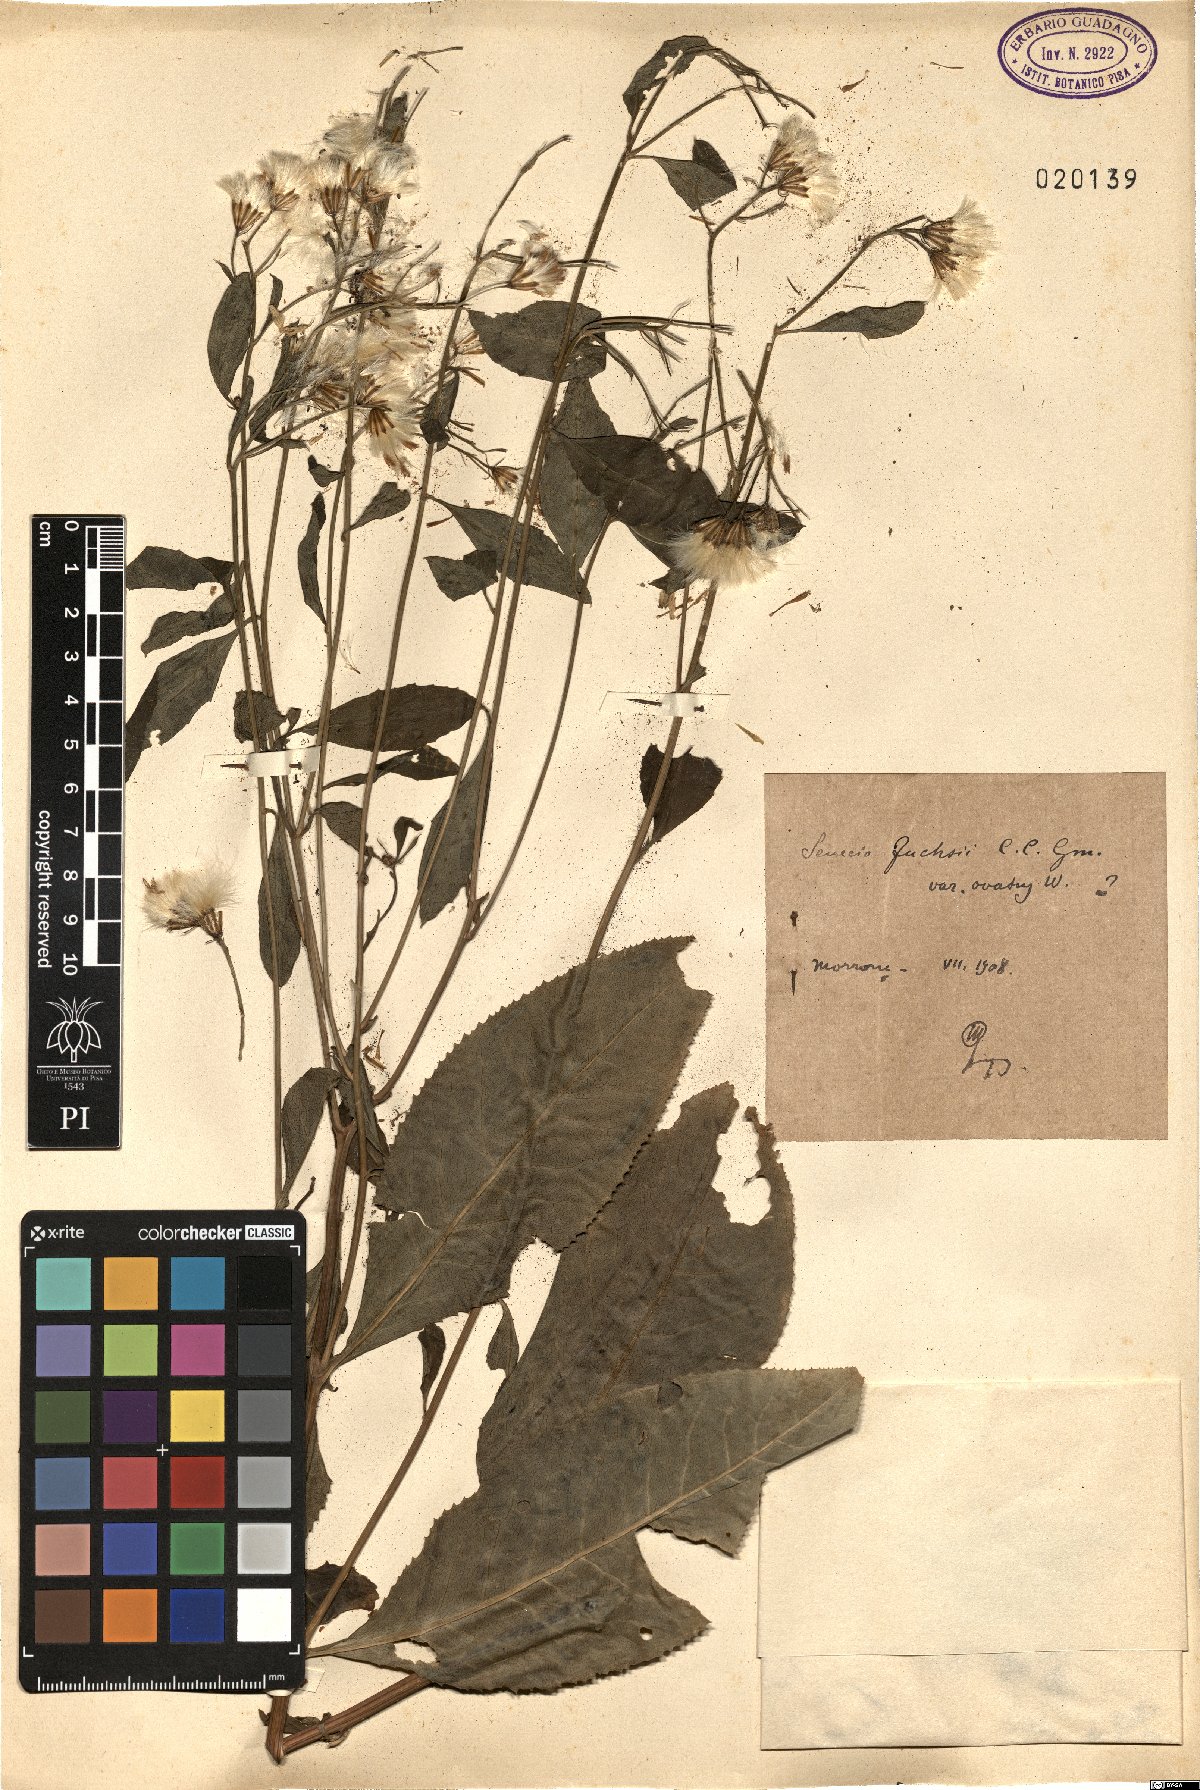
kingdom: Plantae
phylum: Tracheophyta
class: Magnoliopsida
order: Asterales
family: Asteraceae
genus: Senecio
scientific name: Senecio ovatus
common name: Wood ragwort
